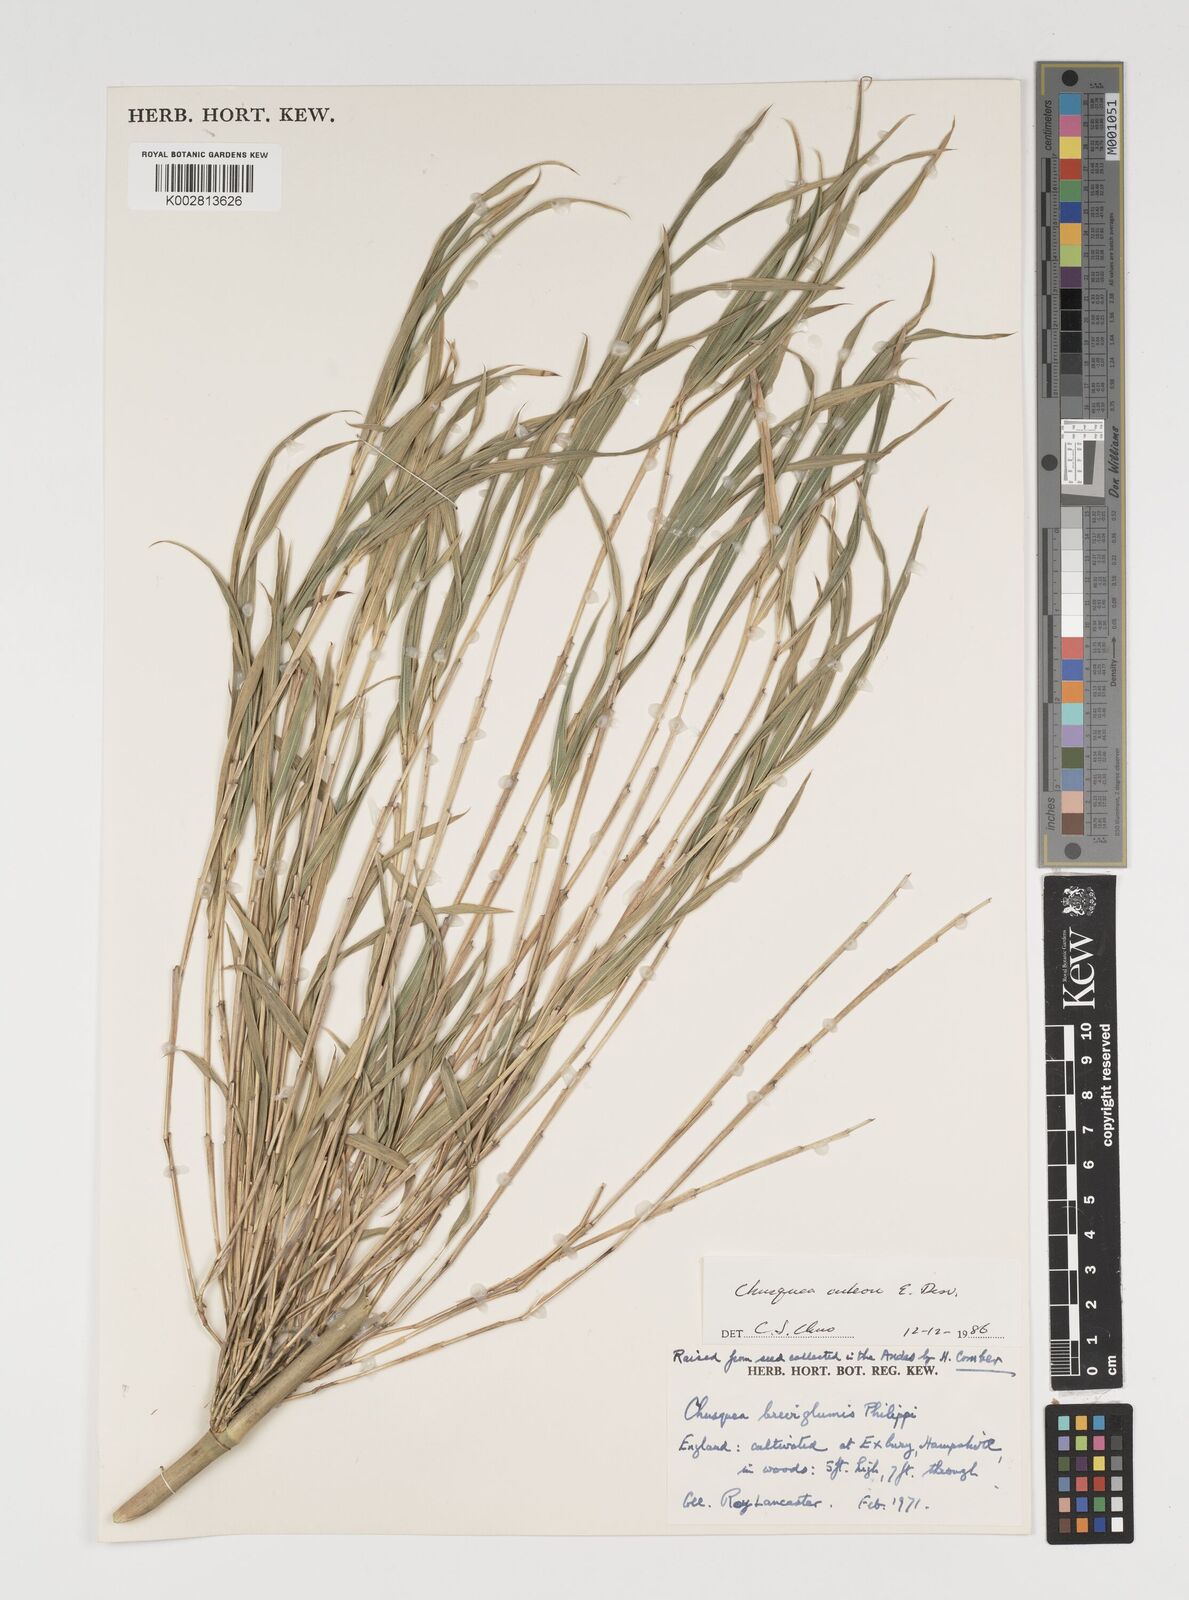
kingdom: Plantae
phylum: Tracheophyta
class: Liliopsida
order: Poales
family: Poaceae
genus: Chusquea
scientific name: Chusquea culeou
